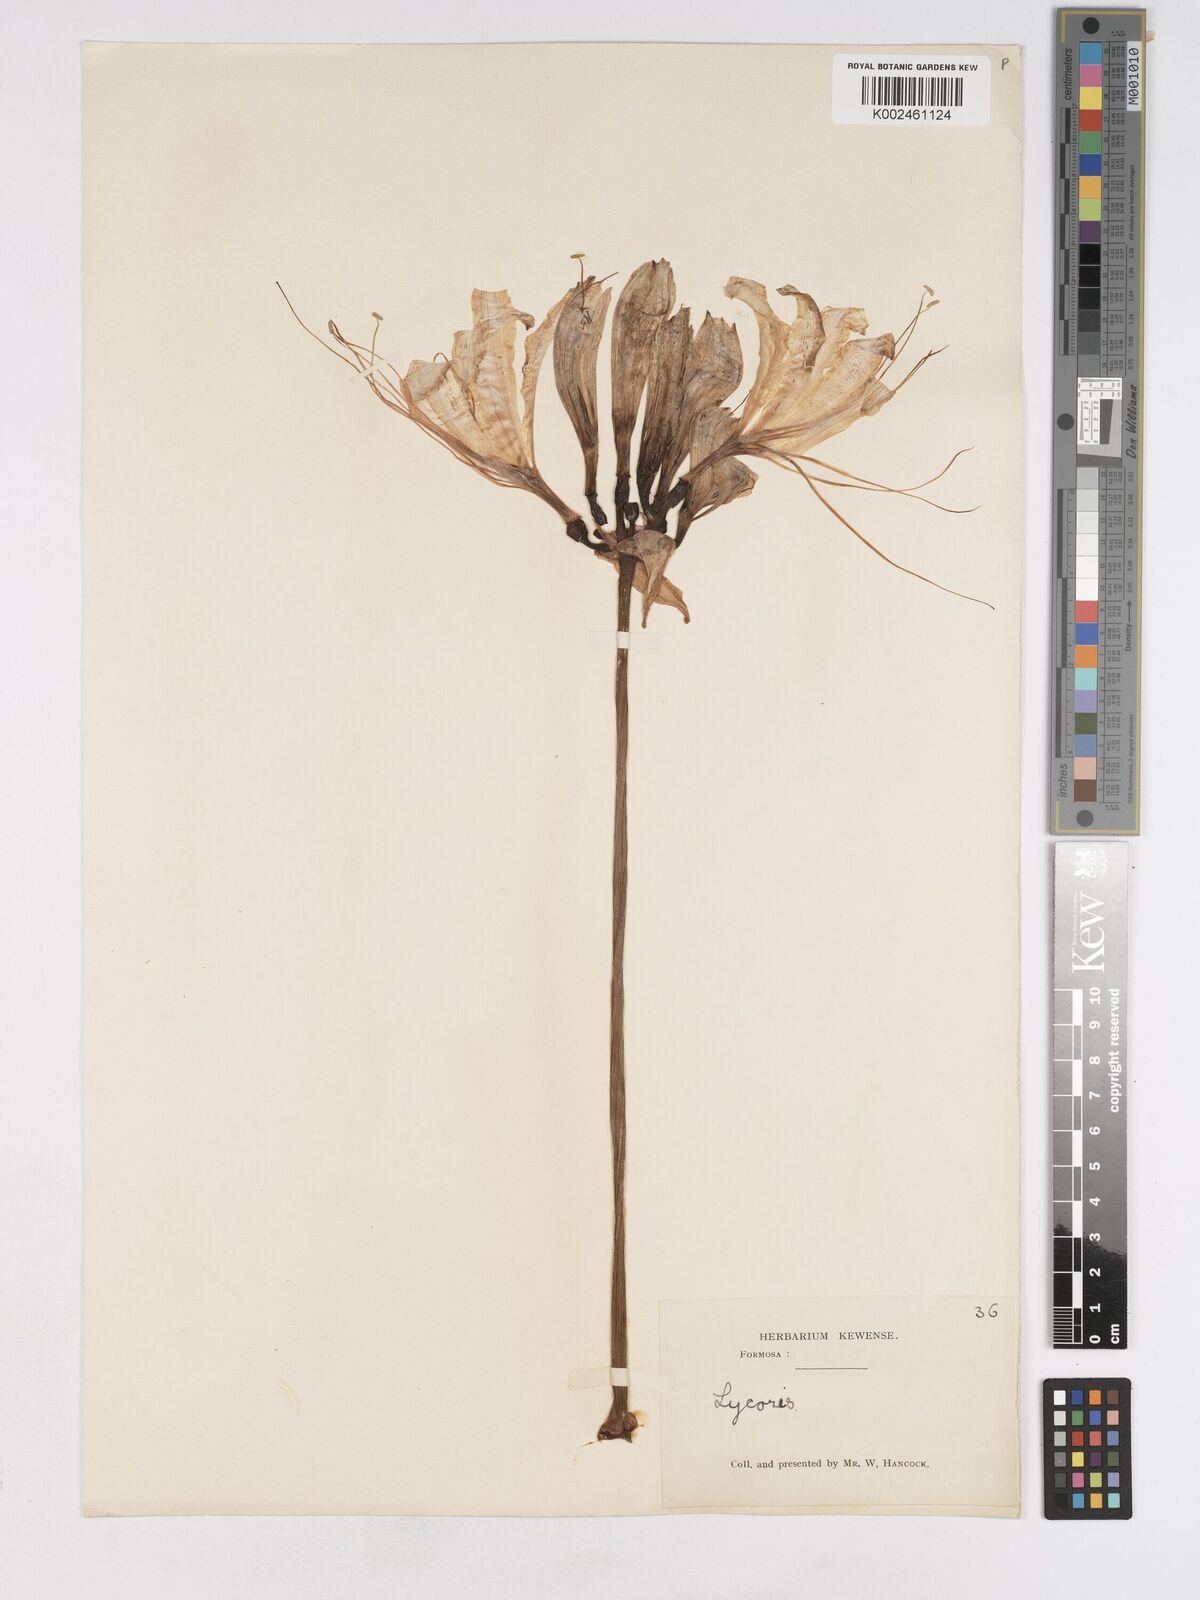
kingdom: Plantae
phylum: Tracheophyta
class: Liliopsida
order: Asparagales
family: Amaryllidaceae
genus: Lycoris
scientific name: Lycoris aurea
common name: Golden hurricane-lily
